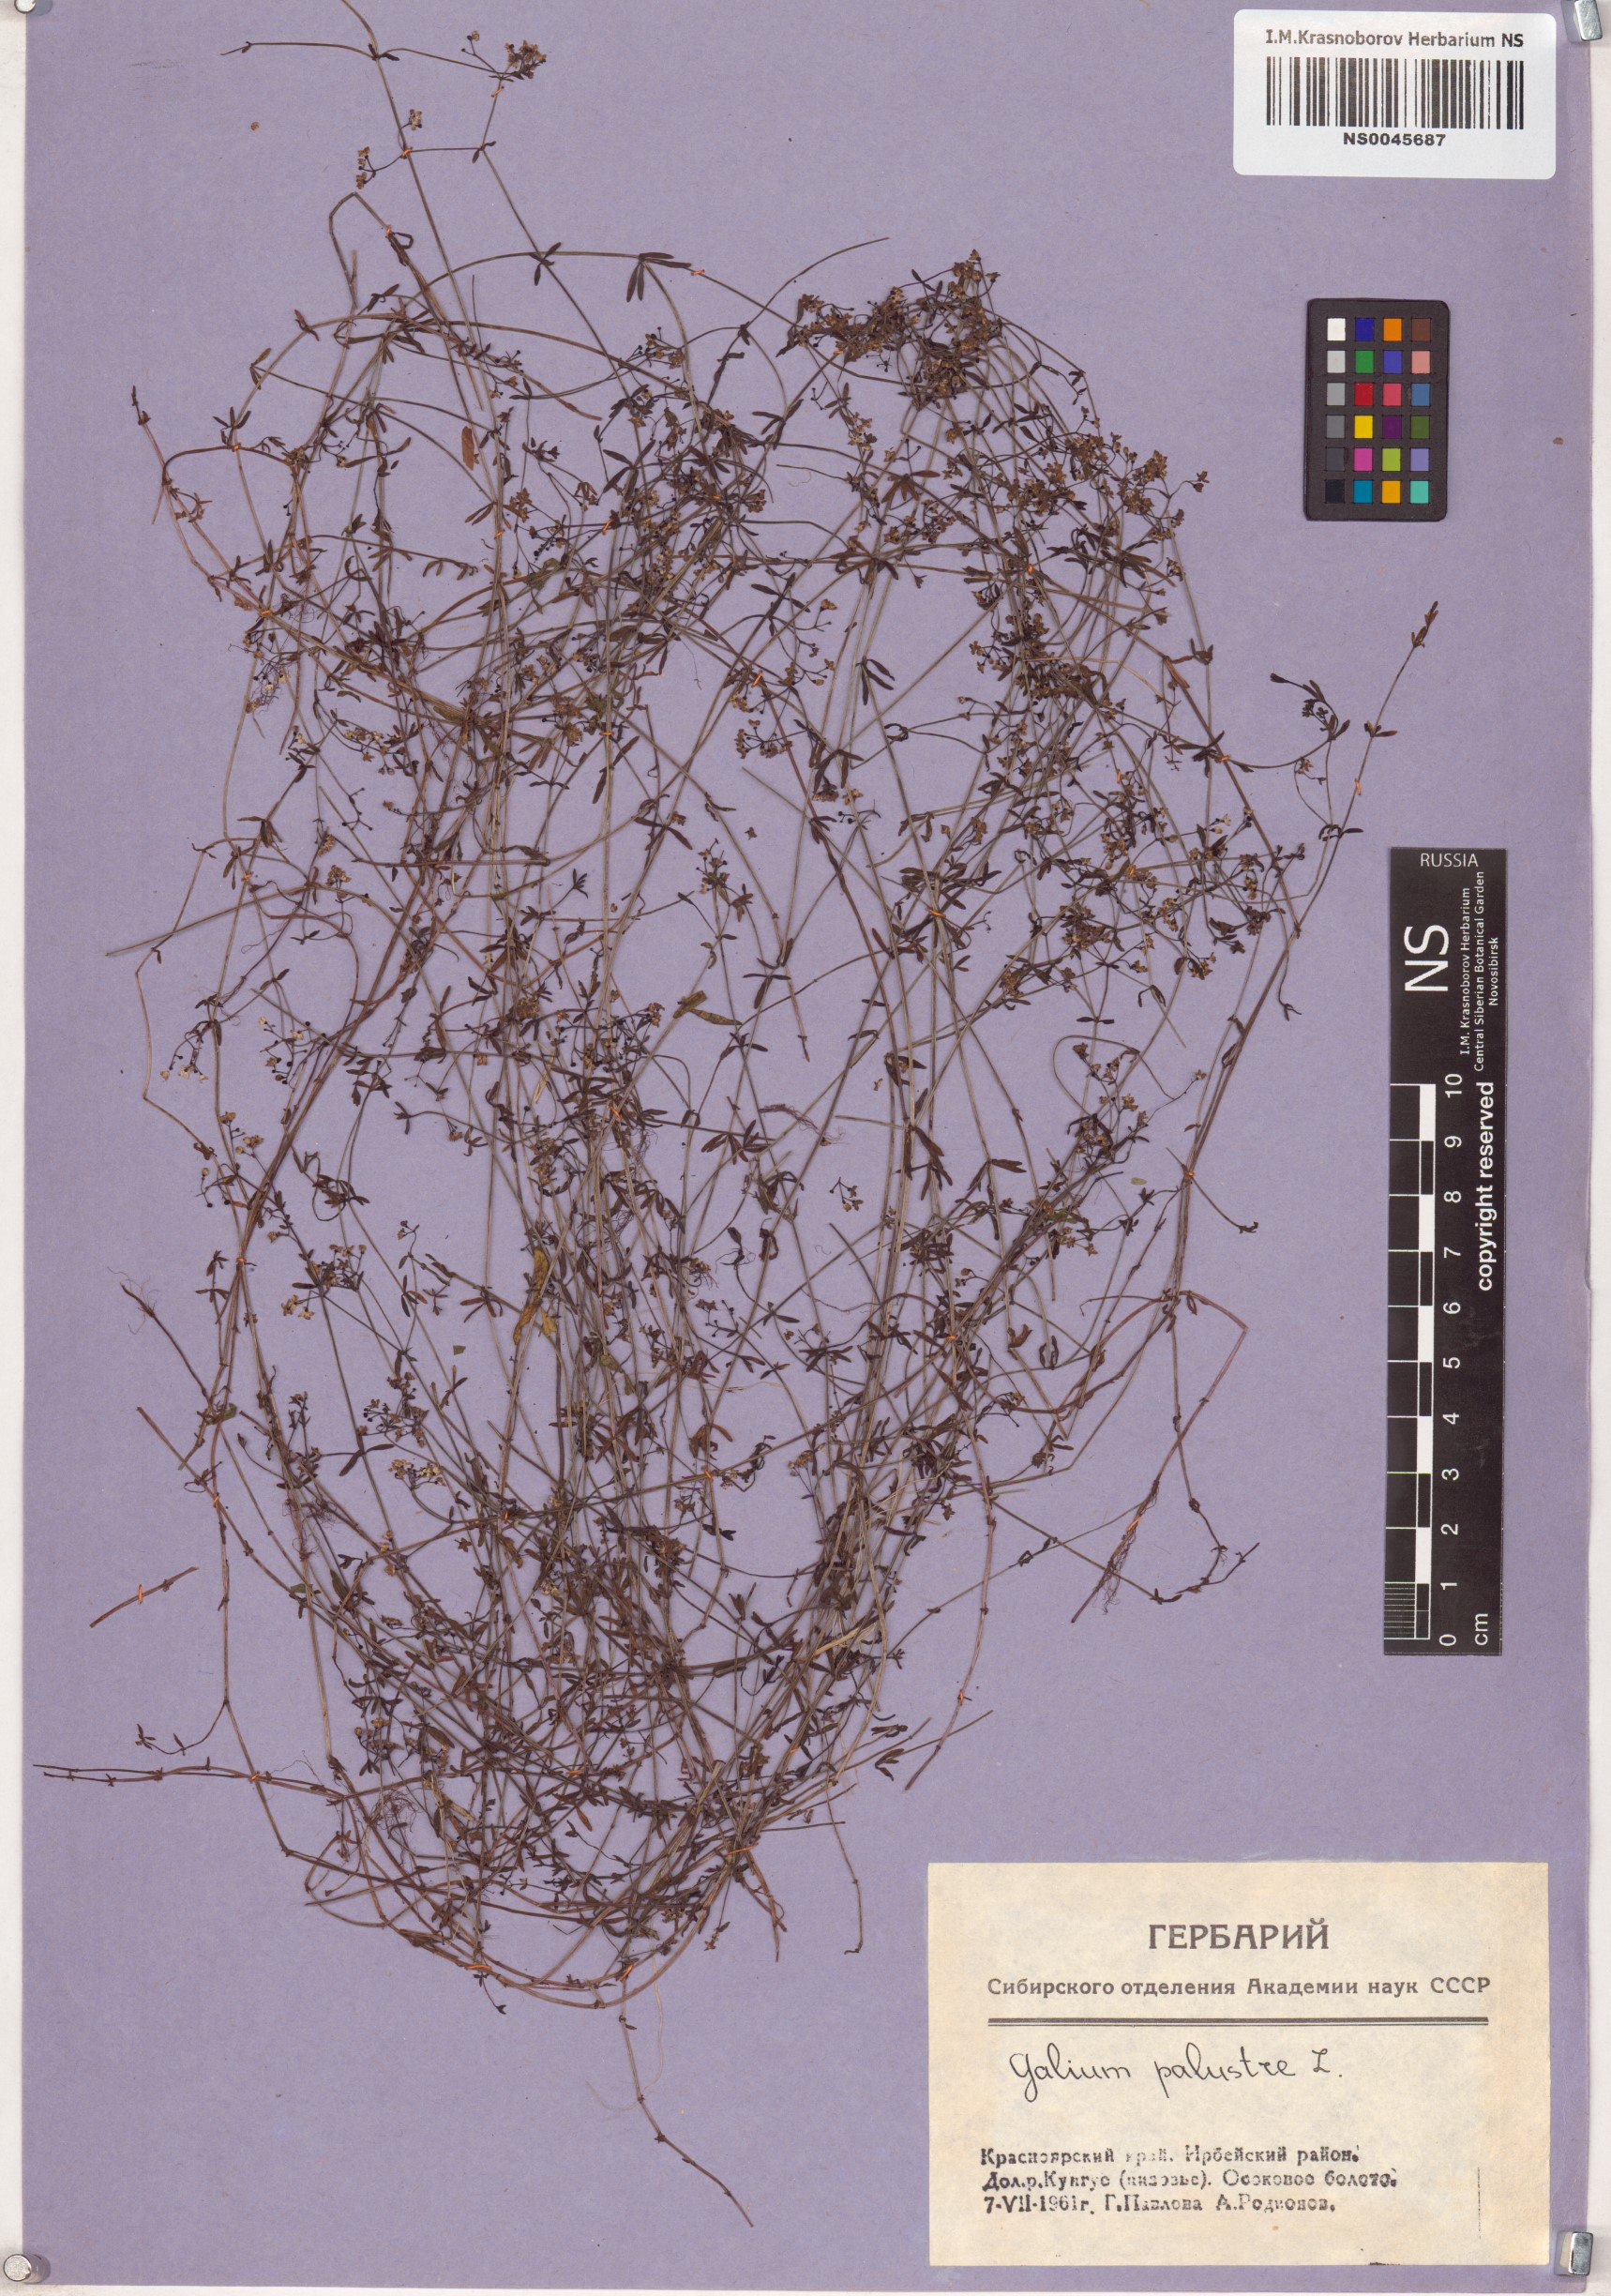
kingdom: Plantae
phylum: Tracheophyta
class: Magnoliopsida
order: Gentianales
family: Rubiaceae
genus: Galium
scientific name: Galium palustre
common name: Common marsh-bedstraw
